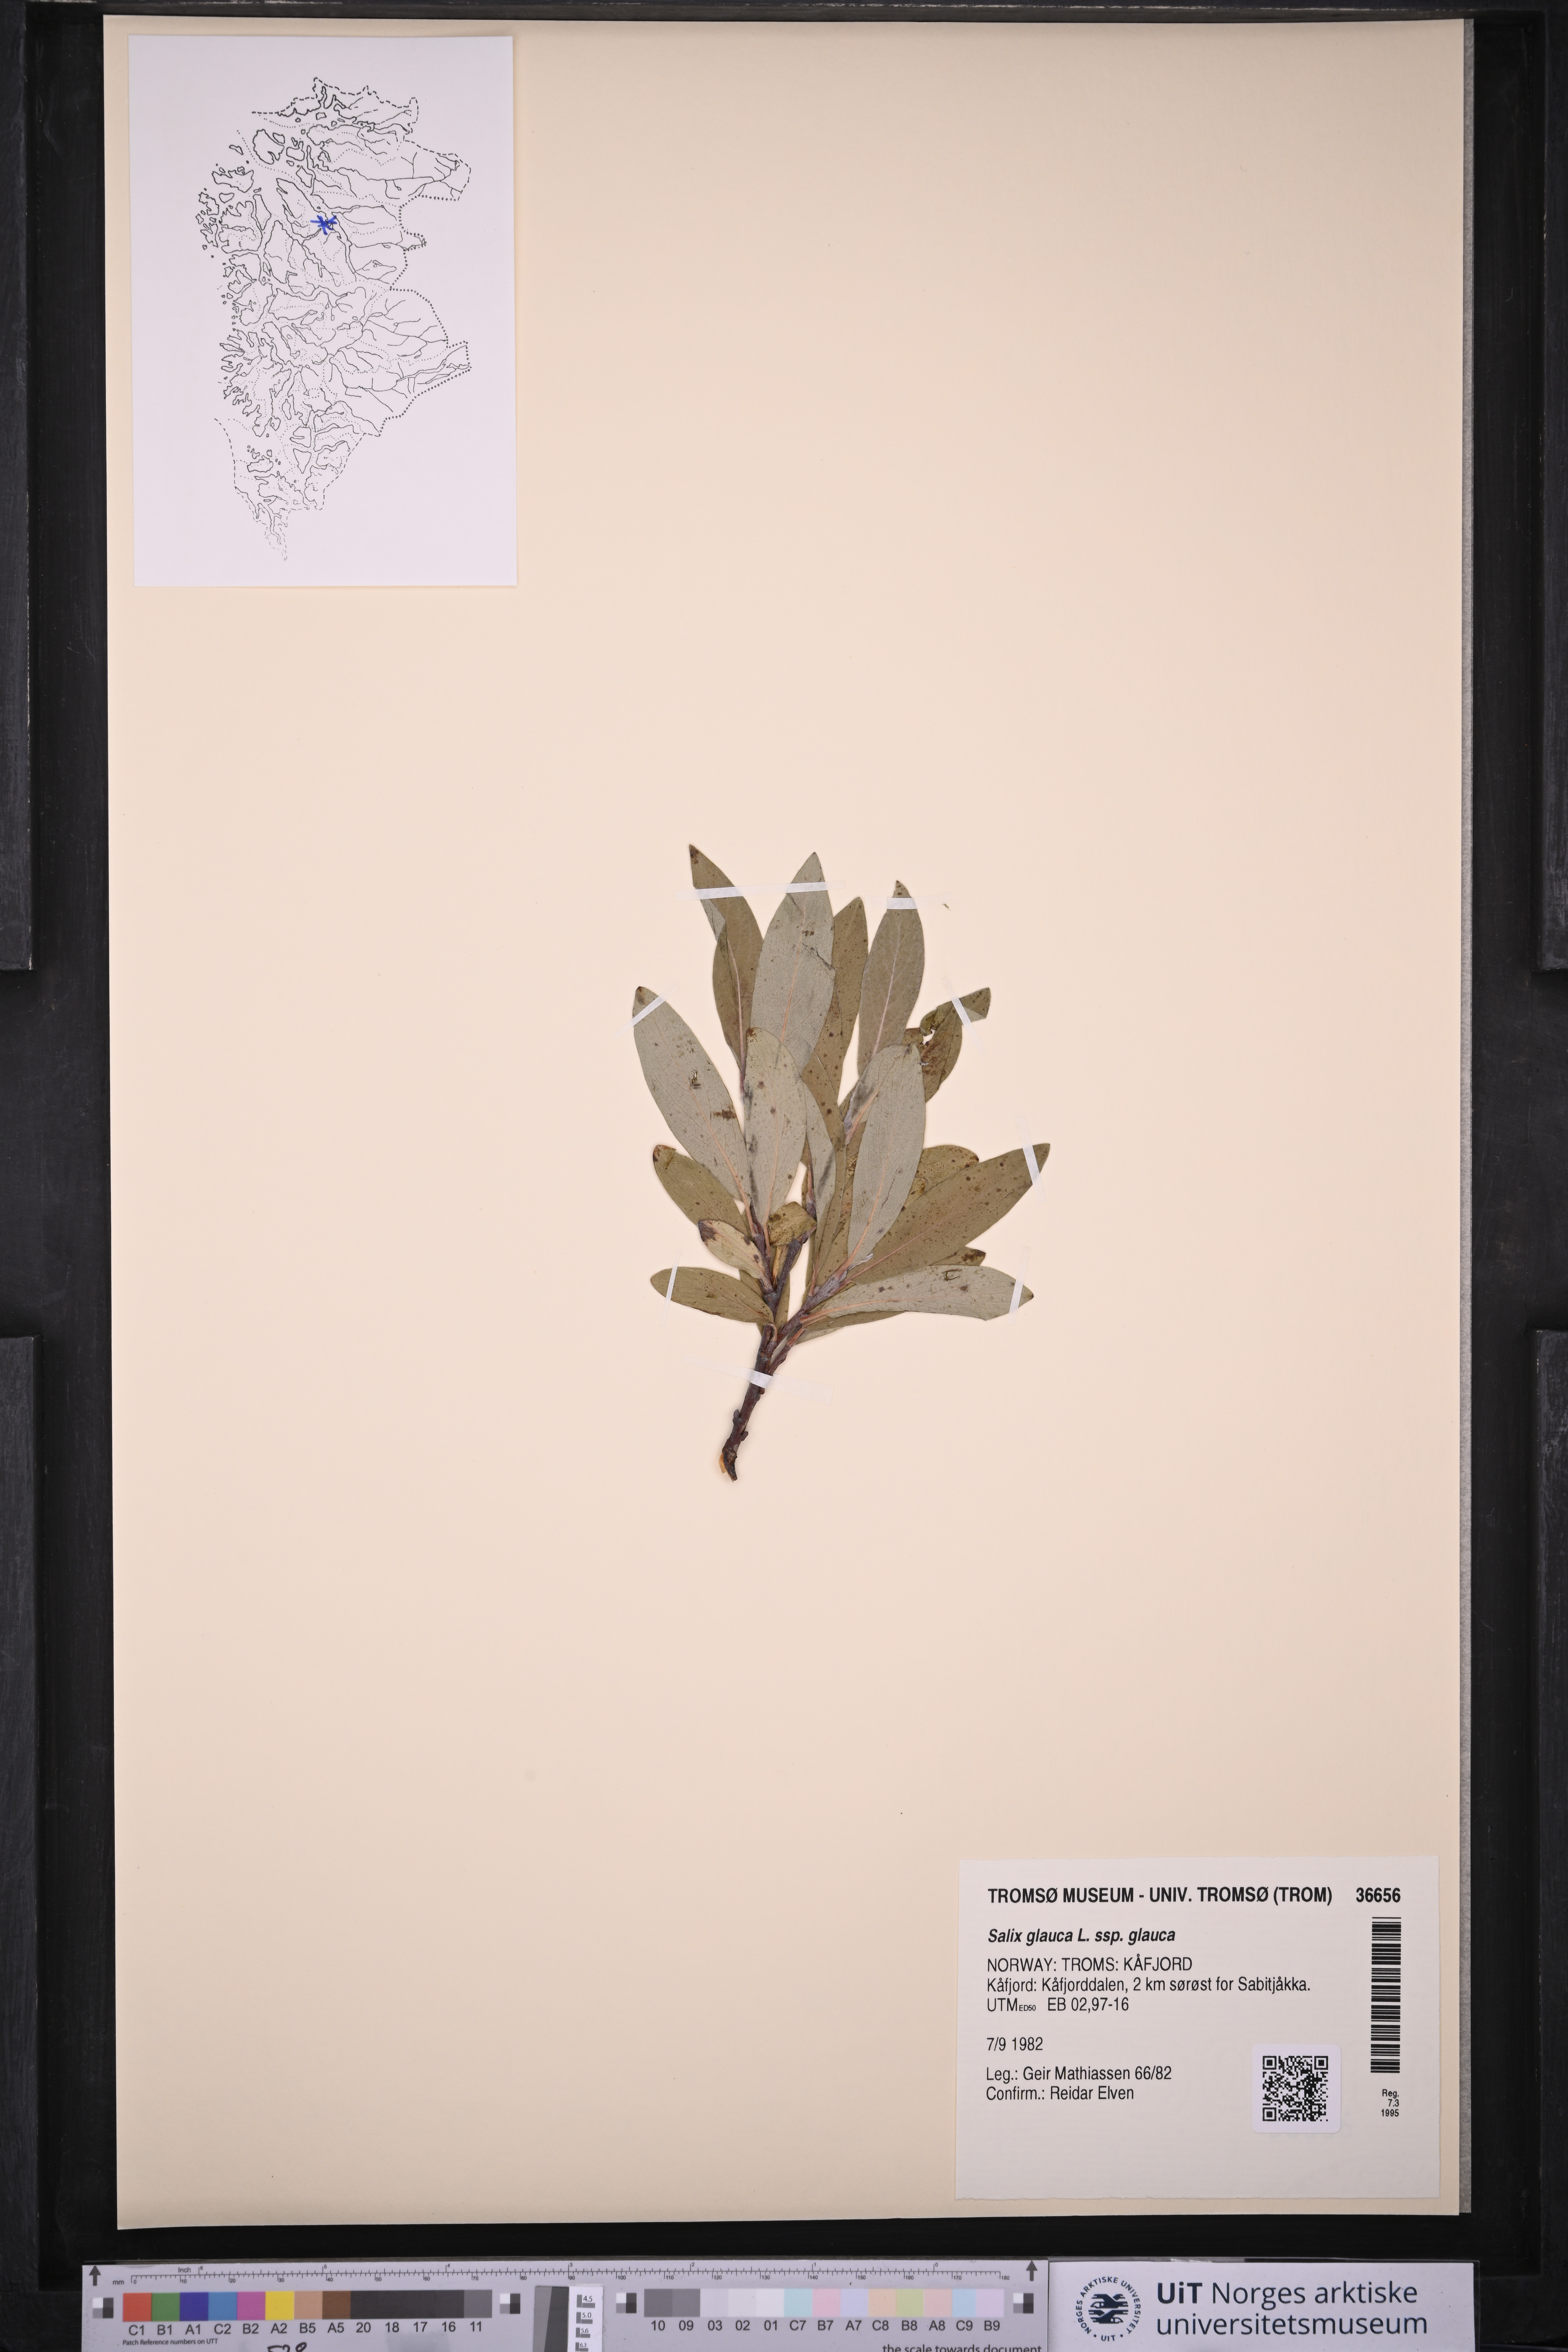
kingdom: Plantae
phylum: Tracheophyta
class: Magnoliopsida
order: Malpighiales
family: Salicaceae
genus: Salix
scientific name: Salix glauca
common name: Glaucous willow
